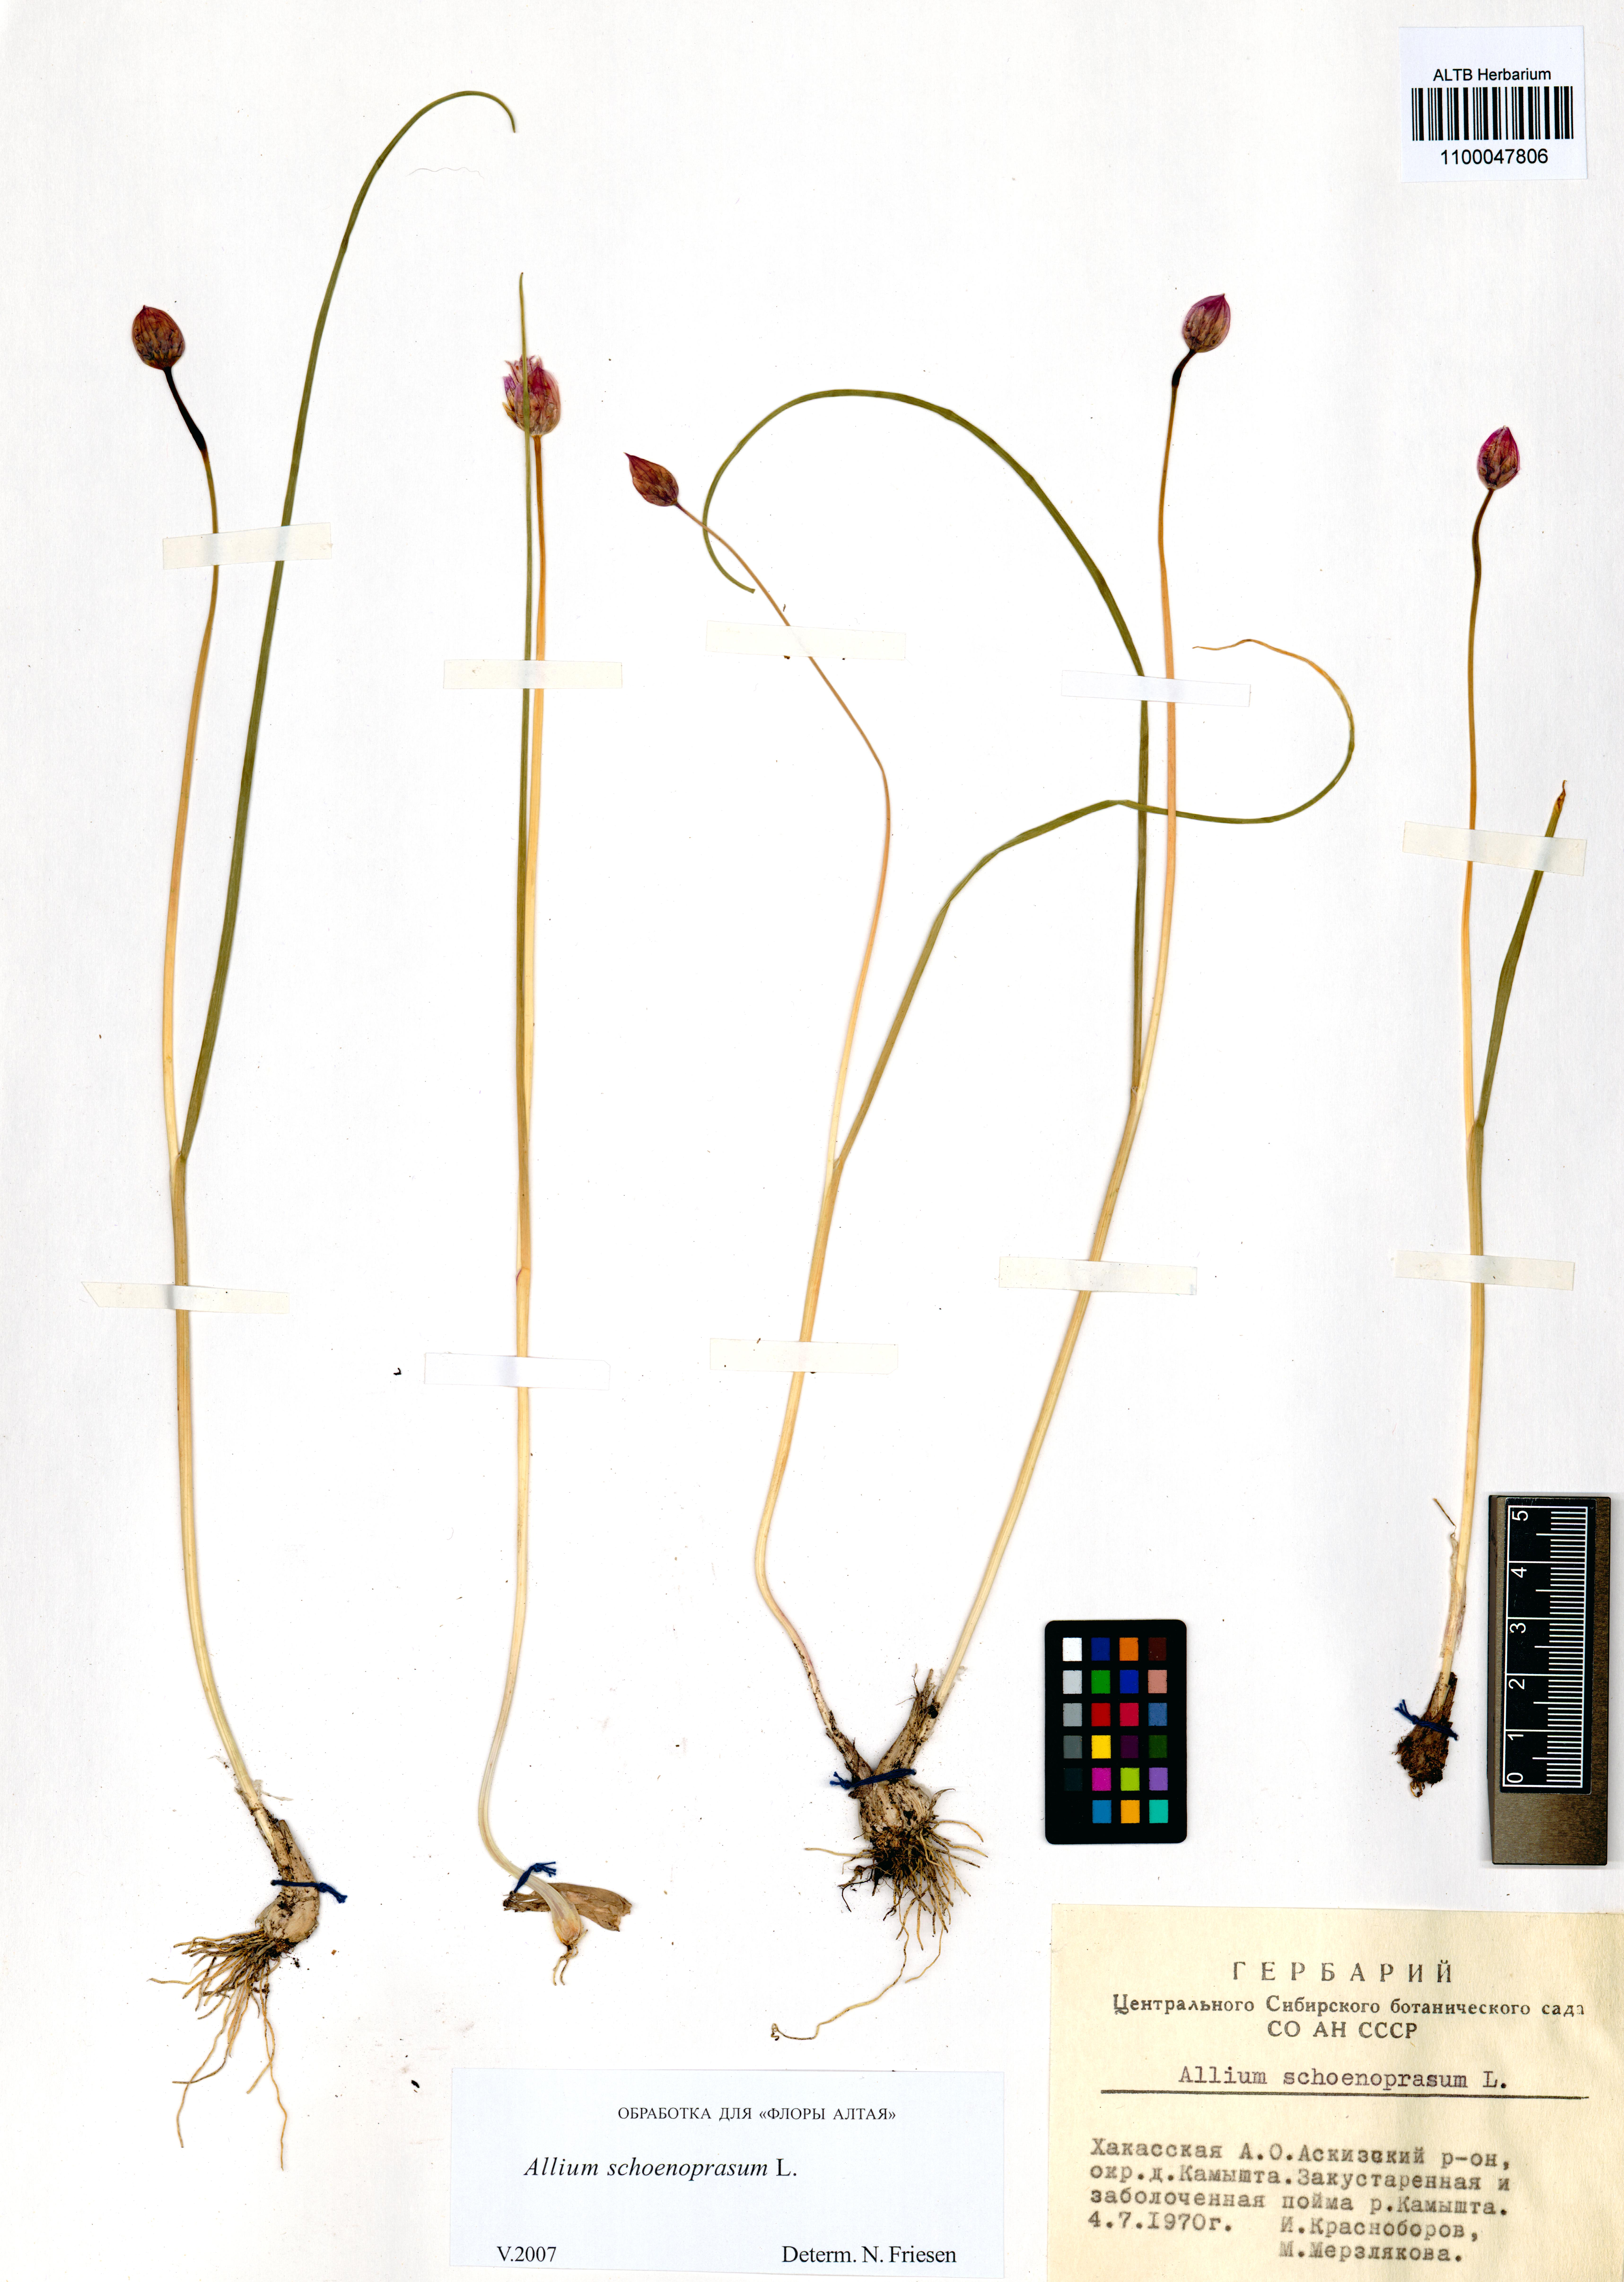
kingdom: Plantae
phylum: Tracheophyta
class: Liliopsida
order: Asparagales
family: Amaryllidaceae
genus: Allium
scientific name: Allium schoenoprasum
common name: Chives
